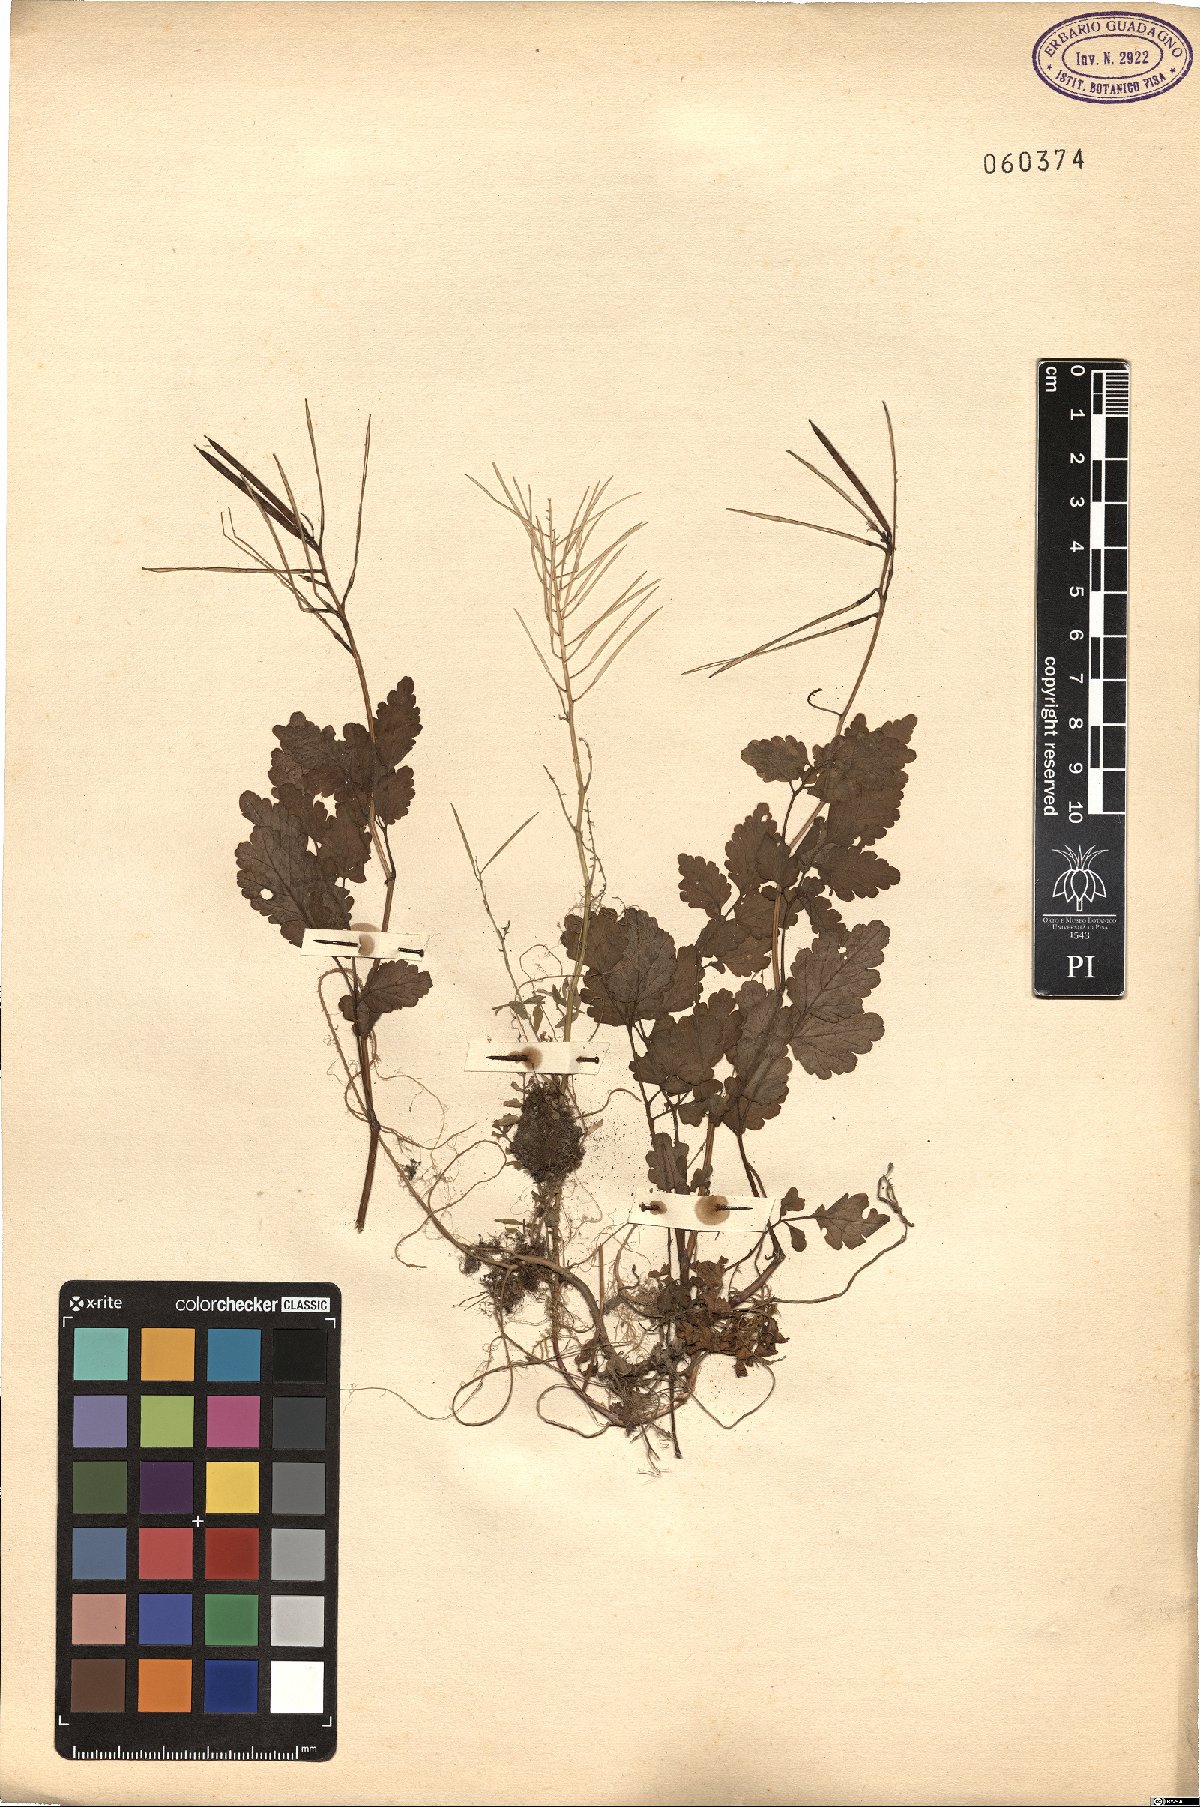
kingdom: Plantae
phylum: Tracheophyta
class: Magnoliopsida
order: Ranunculales
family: Papaveraceae
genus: Chelidonium
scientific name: Chelidonium majus
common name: Greater celandine
